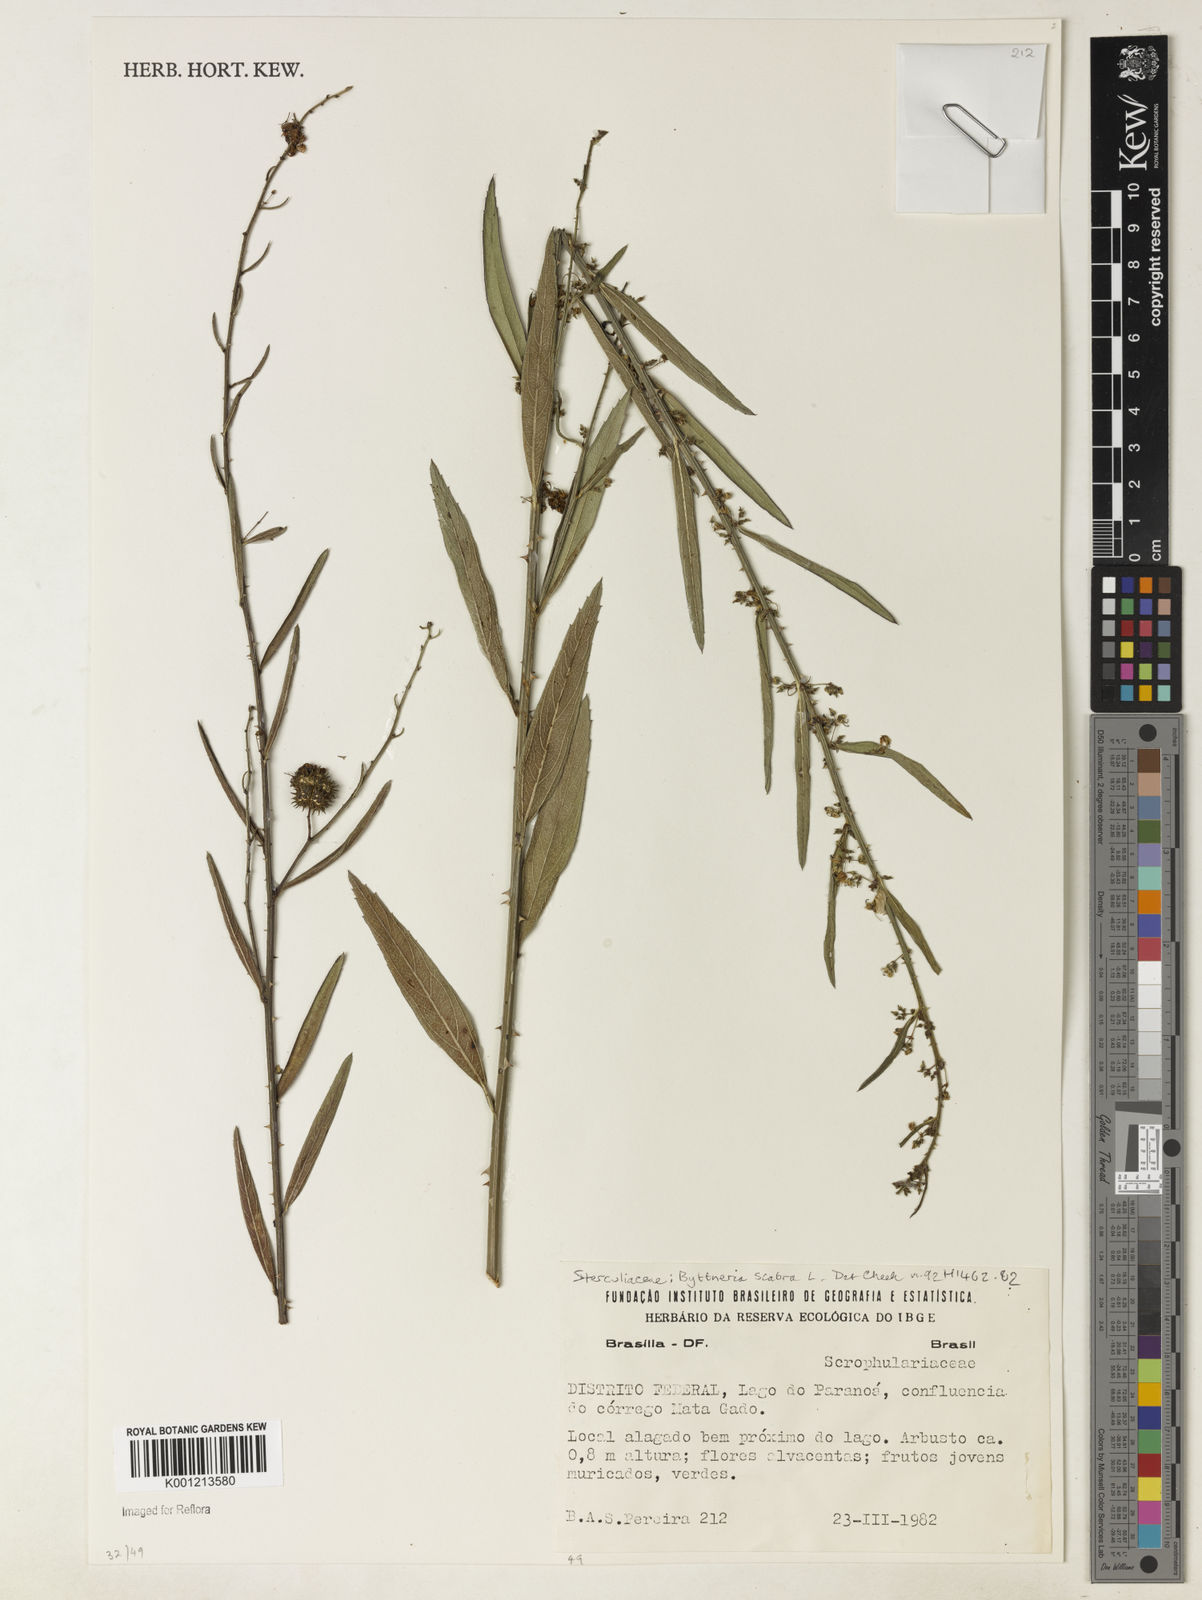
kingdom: Plantae
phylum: Tracheophyta
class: Magnoliopsida
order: Malvales
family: Malvaceae
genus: Byttneria
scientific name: Byttneria
